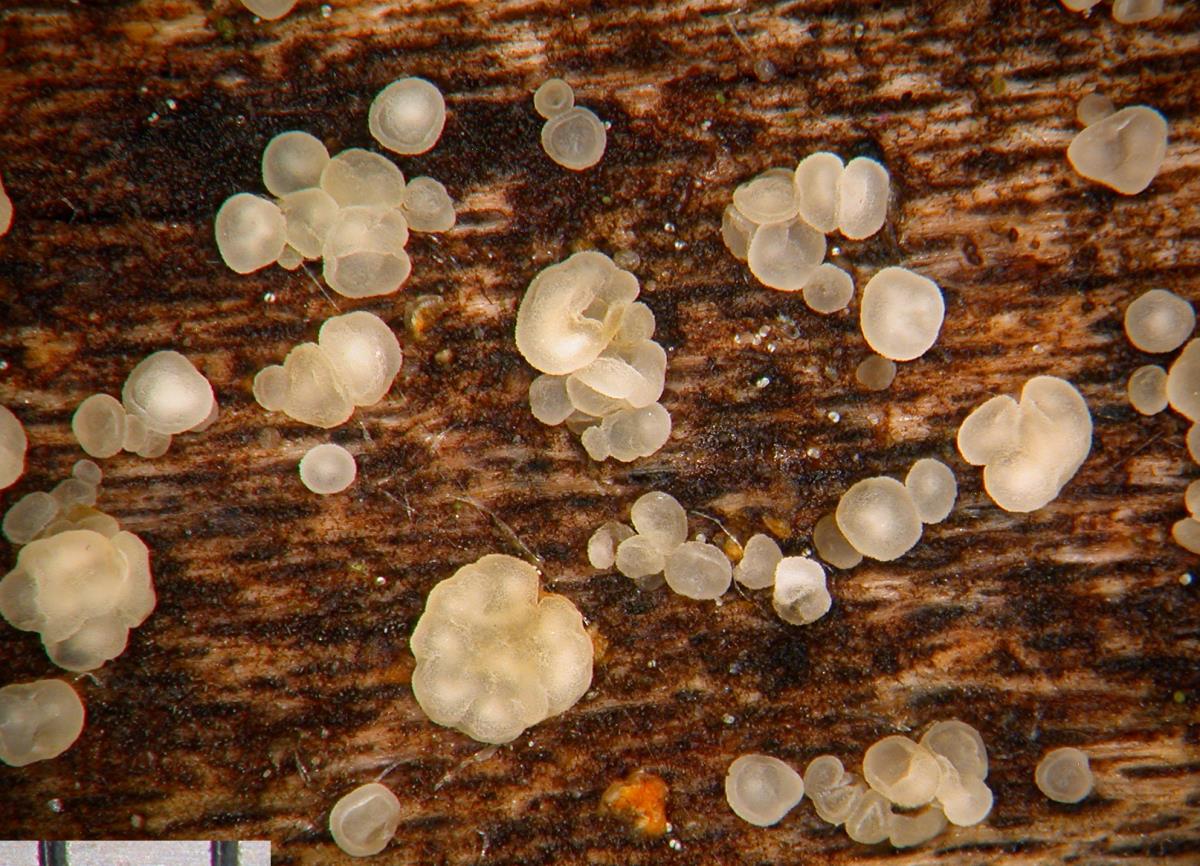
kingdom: Fungi
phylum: Ascomycota
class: Leotiomycetes
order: Helotiales
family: Helotiaceae
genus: Hymenoscyphus
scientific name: Hymenoscyphus
